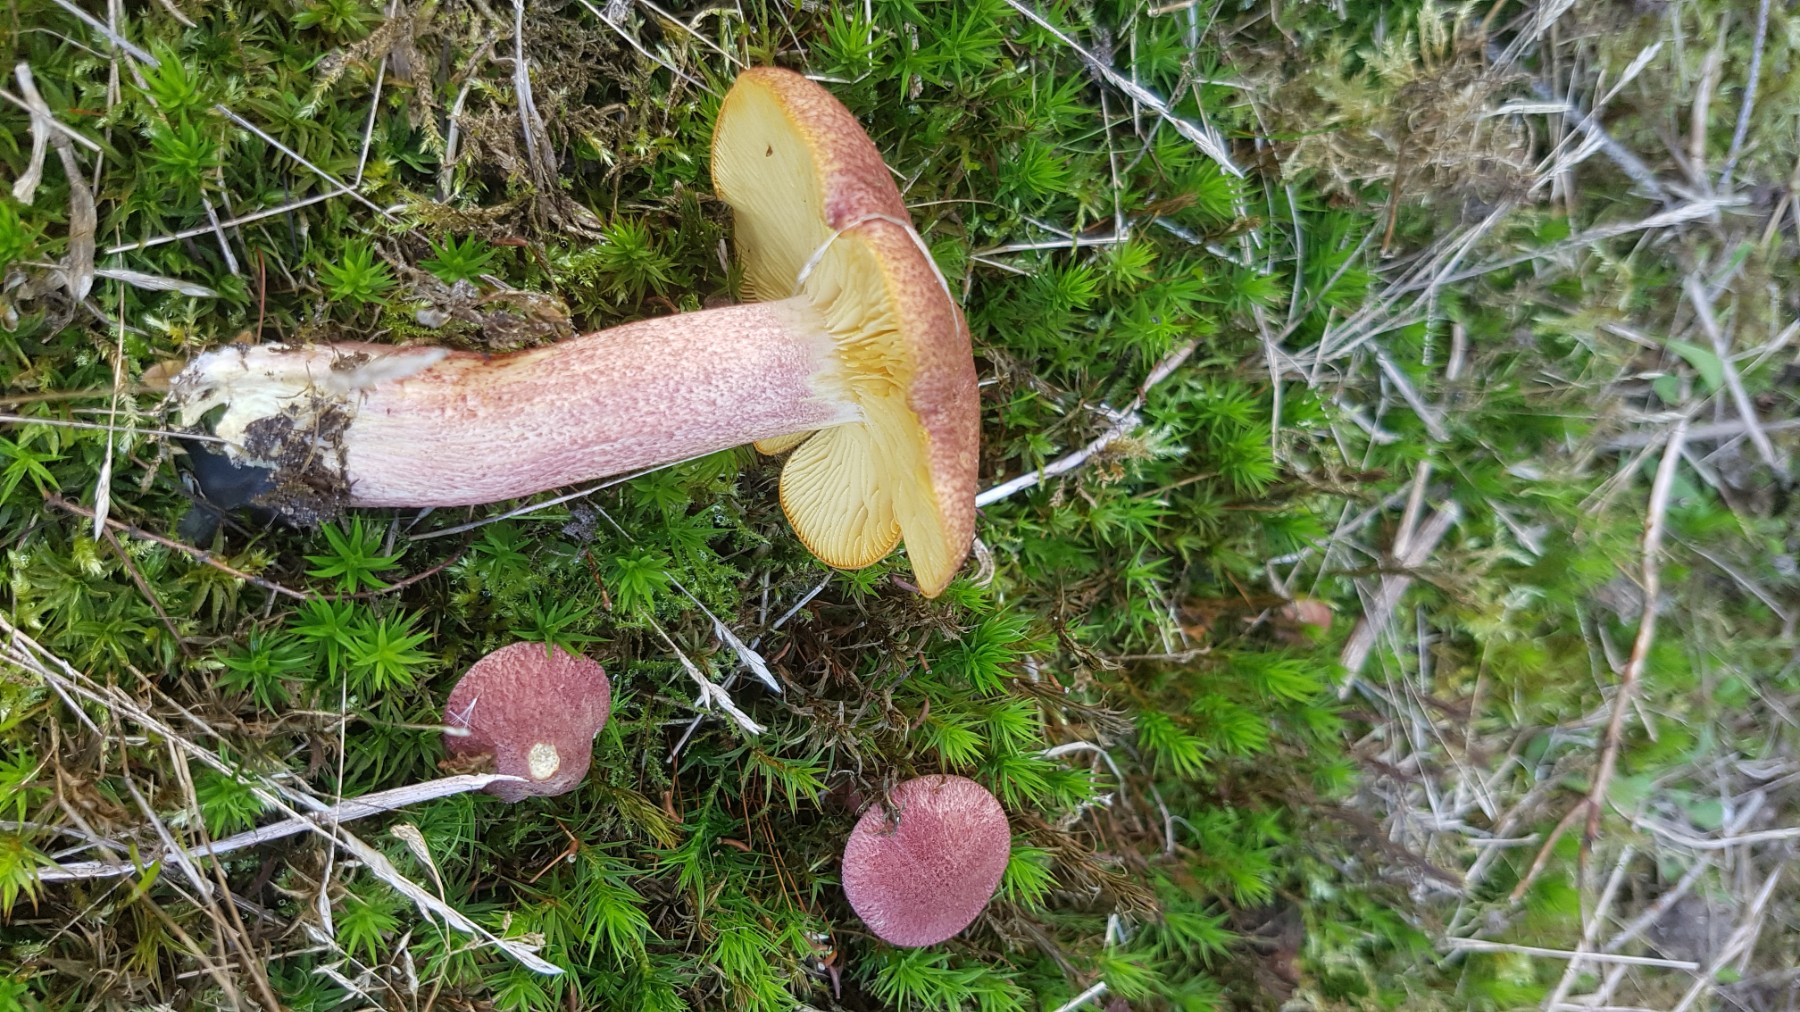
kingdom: Fungi
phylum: Basidiomycota
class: Agaricomycetes
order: Agaricales
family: Tricholomataceae
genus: Tricholomopsis
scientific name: Tricholomopsis rutilans
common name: purpur-væbnerhat
